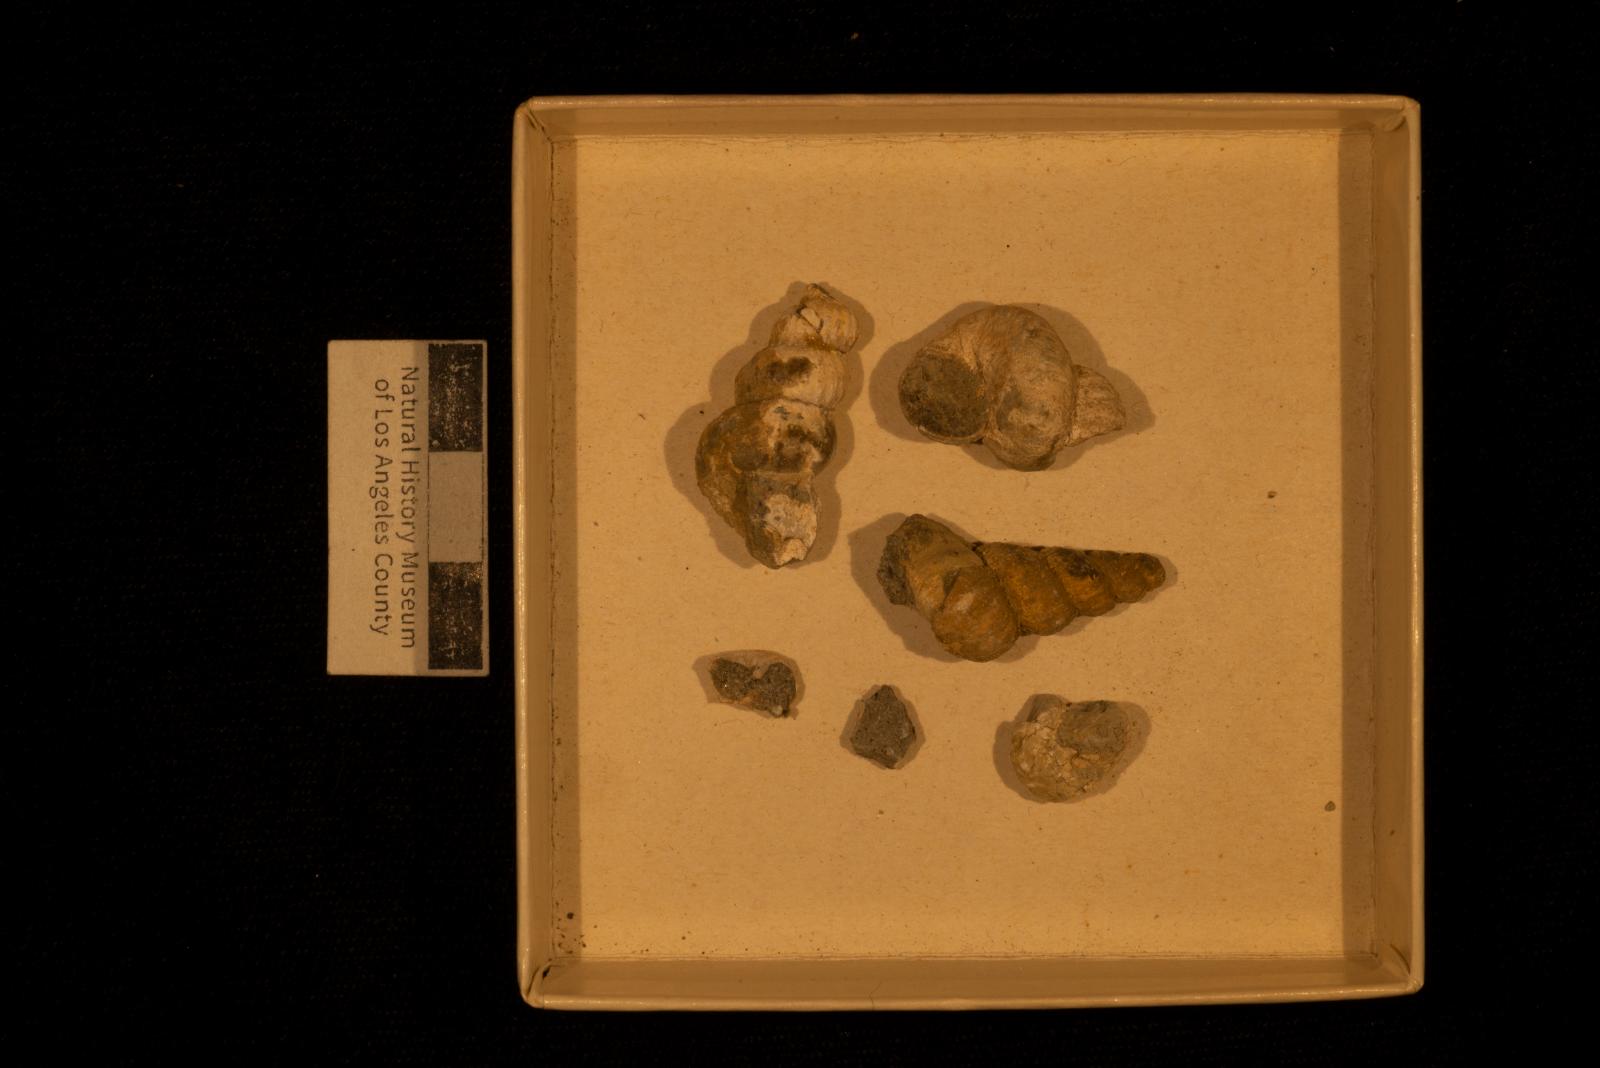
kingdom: Animalia
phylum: Mollusca
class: Gastropoda
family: Epitoniidae
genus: Opalia
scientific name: Opalia cavea
